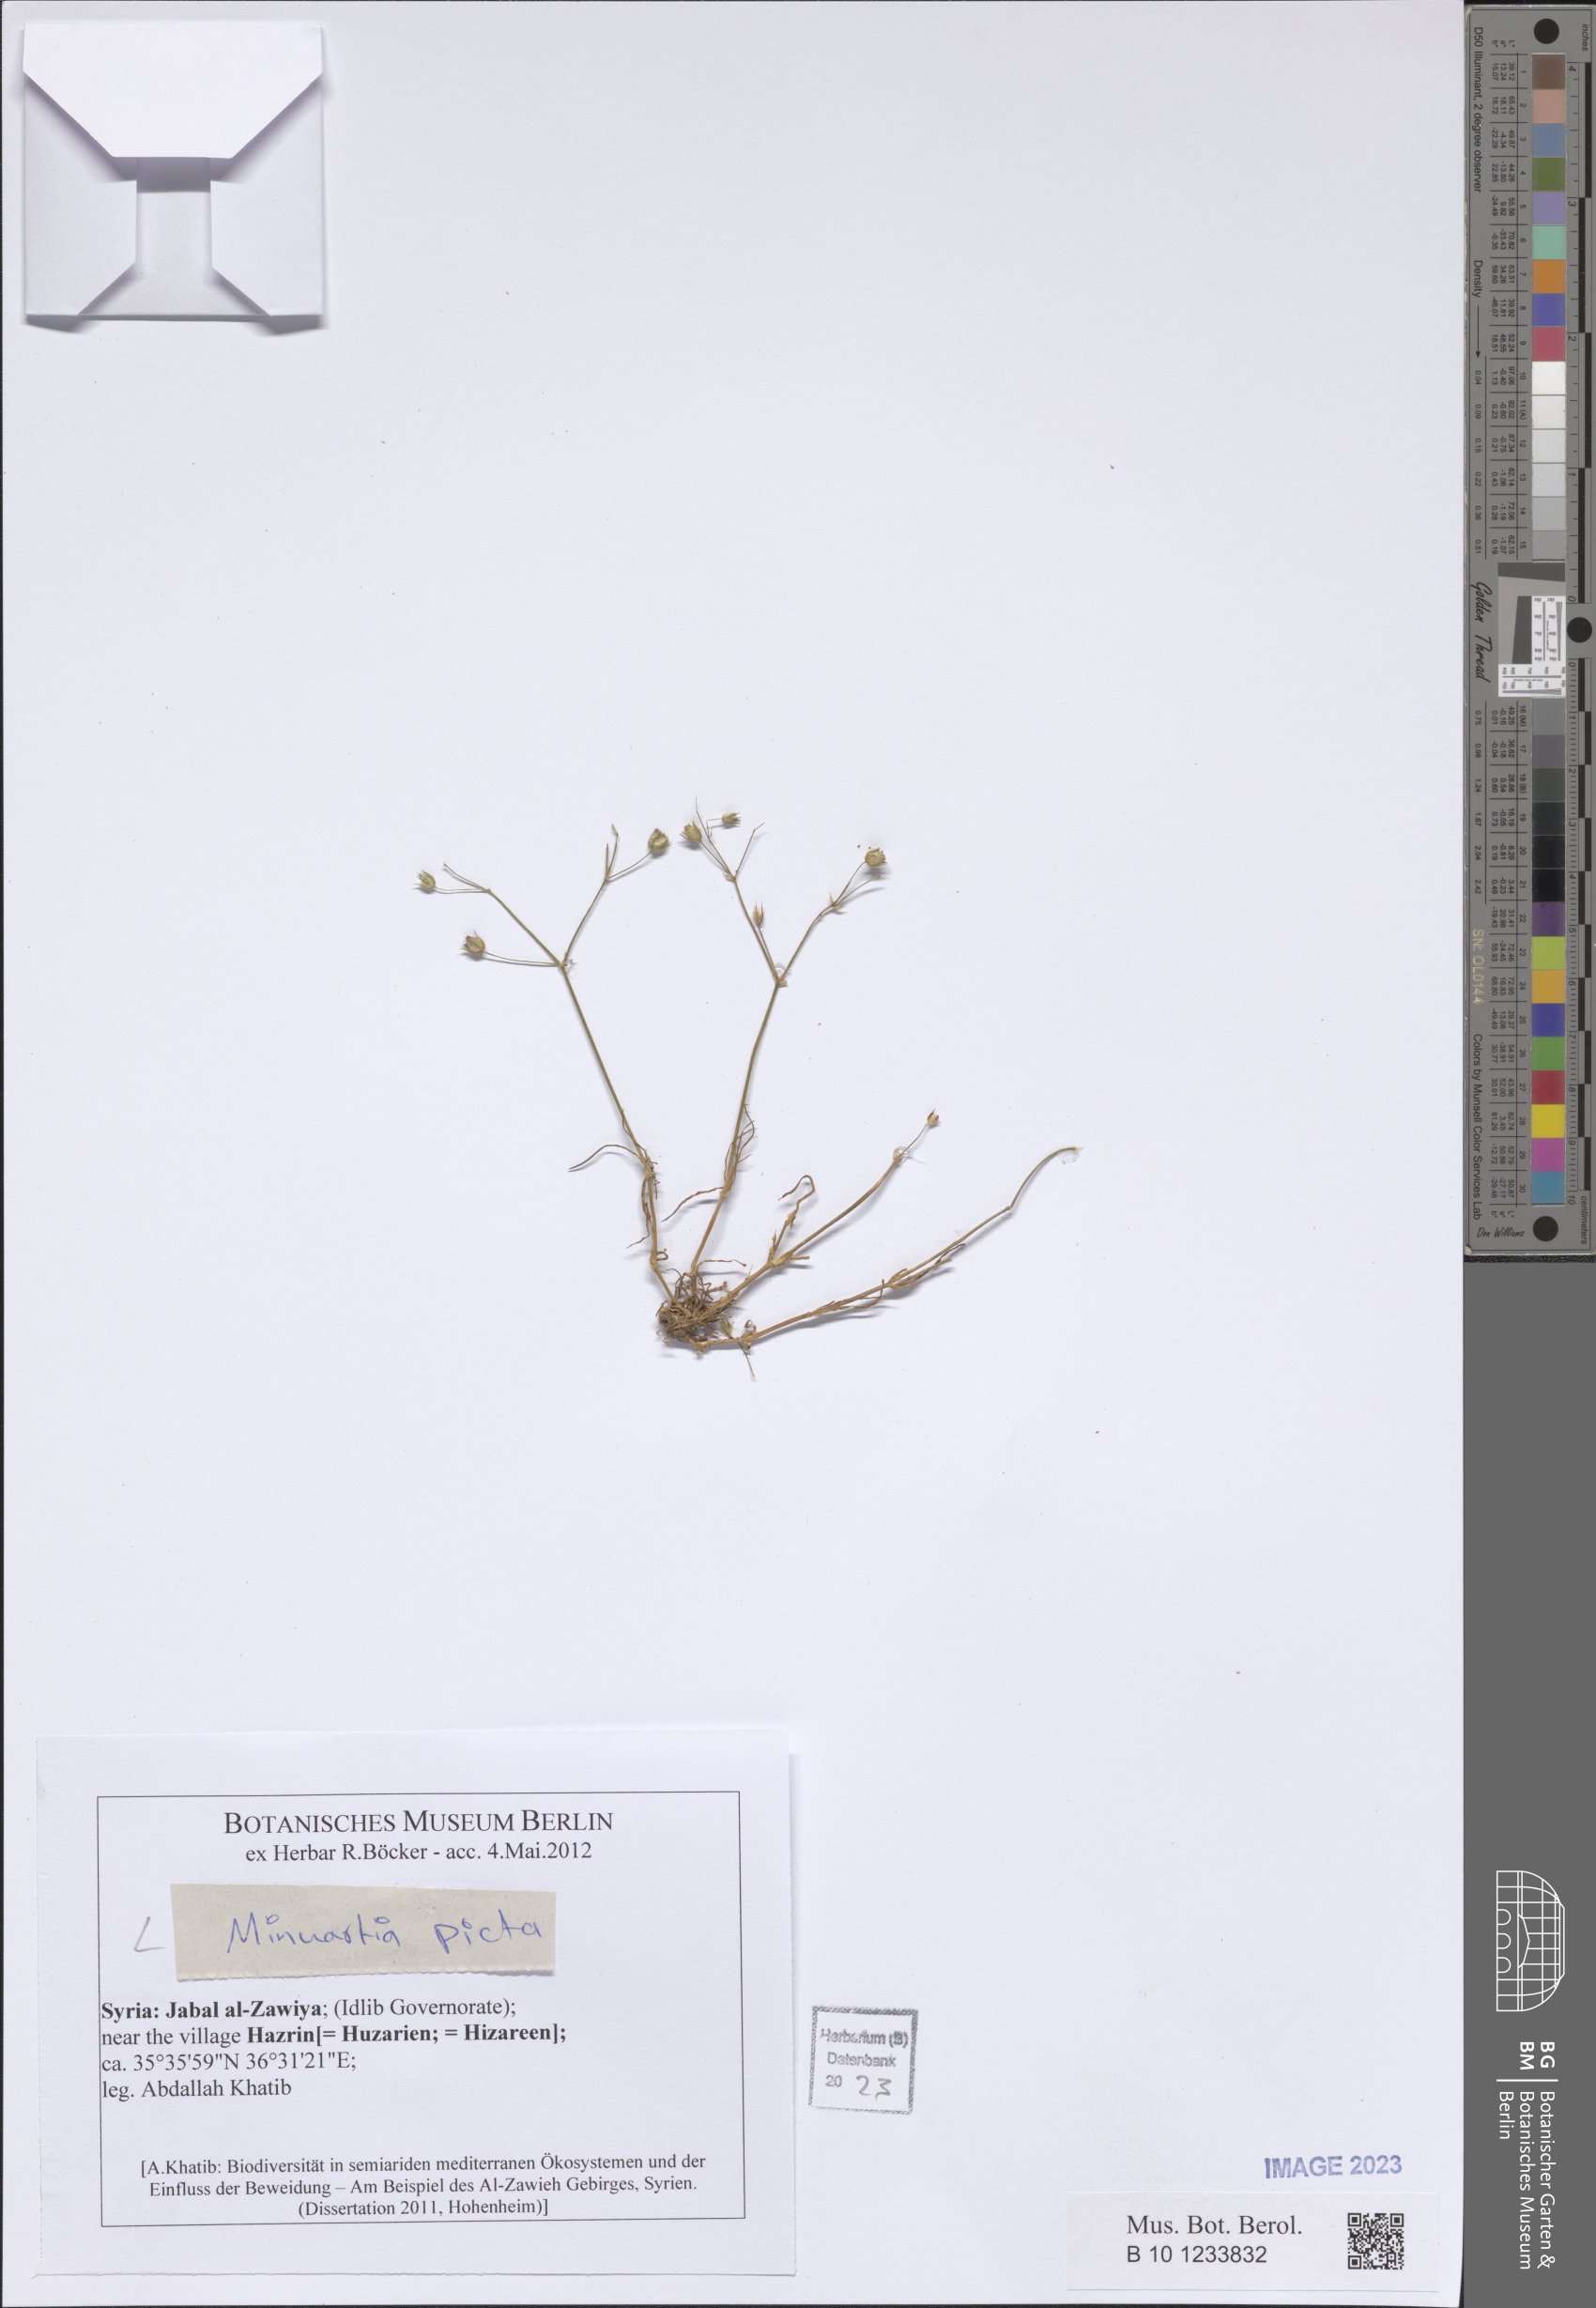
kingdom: Plantae
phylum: Tracheophyta
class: Magnoliopsida
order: Caryophyllales
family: Caryophyllaceae
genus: Eremogone
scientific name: Eremogone picta
